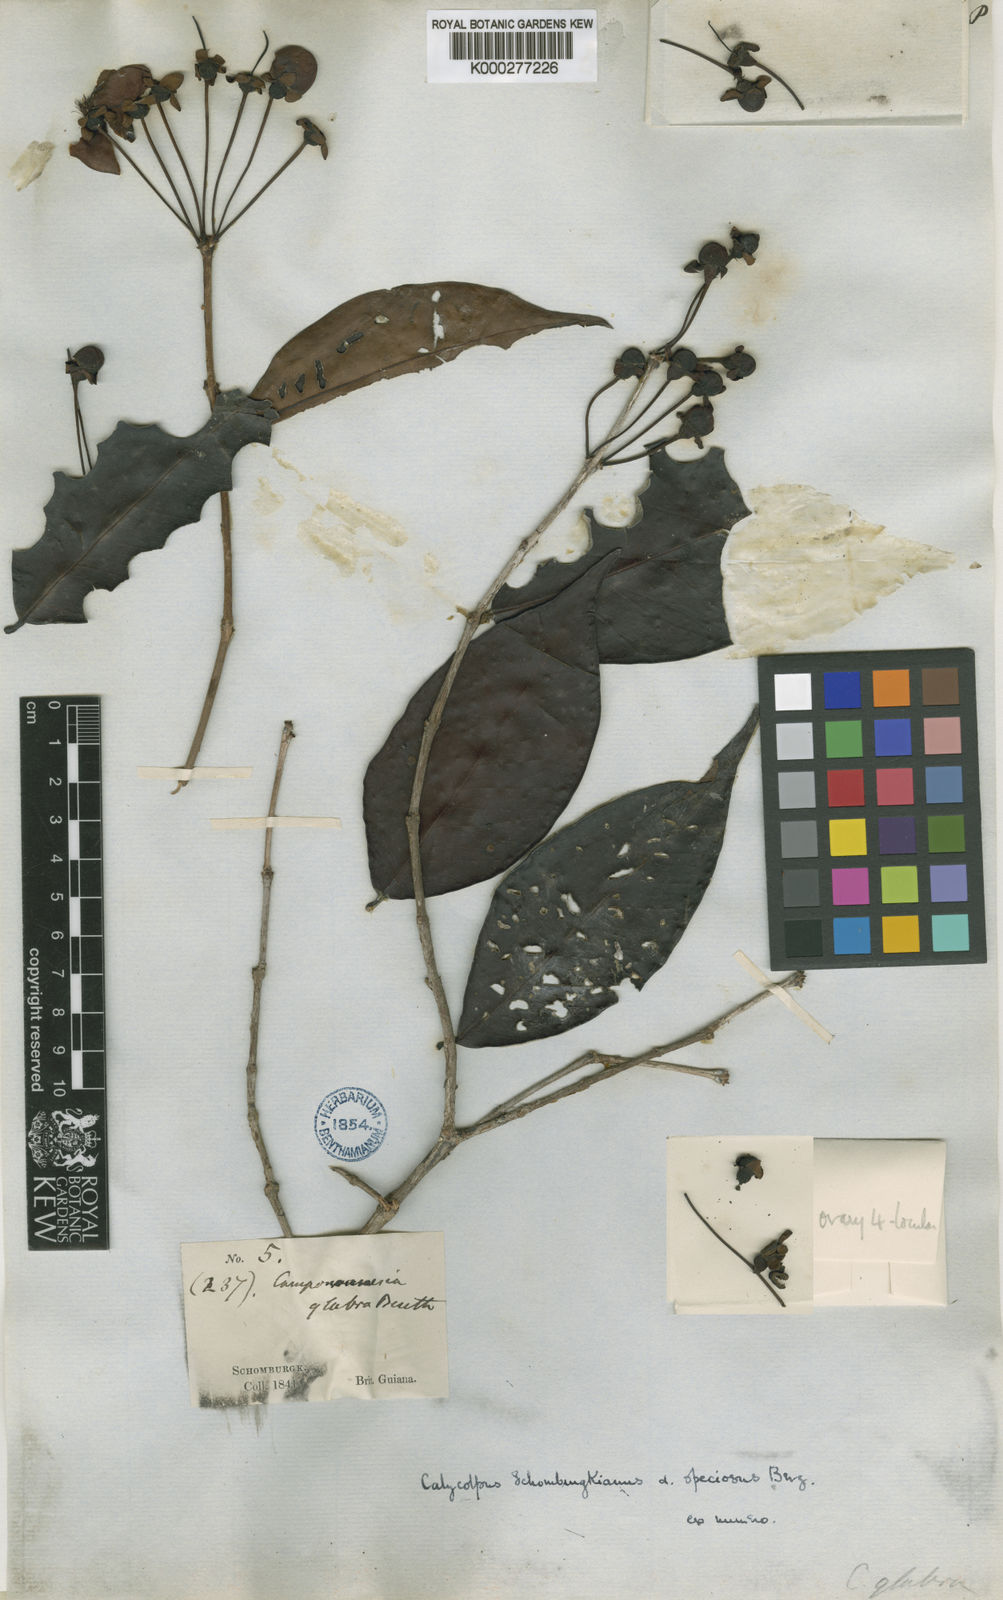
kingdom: Plantae
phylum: Tracheophyta
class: Magnoliopsida
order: Myrtales
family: Myrtaceae
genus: Calycolpus
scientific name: Calycolpus goetheanus
